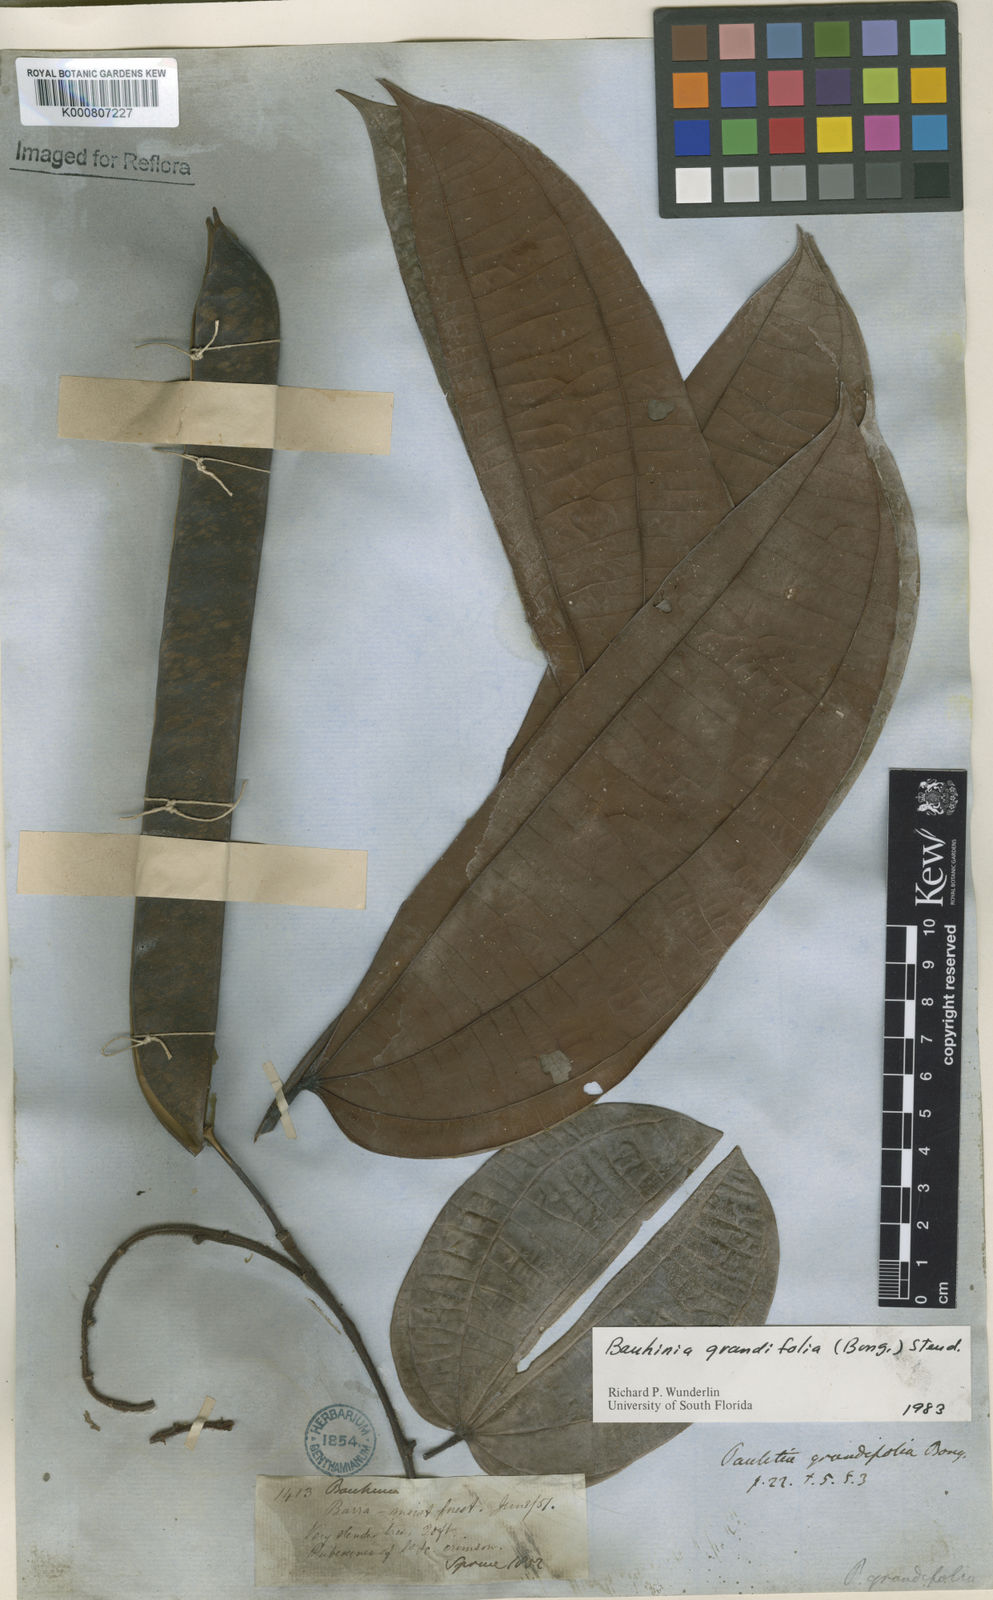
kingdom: Plantae
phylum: Tracheophyta
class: Magnoliopsida
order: Fabales
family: Fabaceae
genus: Bauhinia
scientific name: Bauhinia
